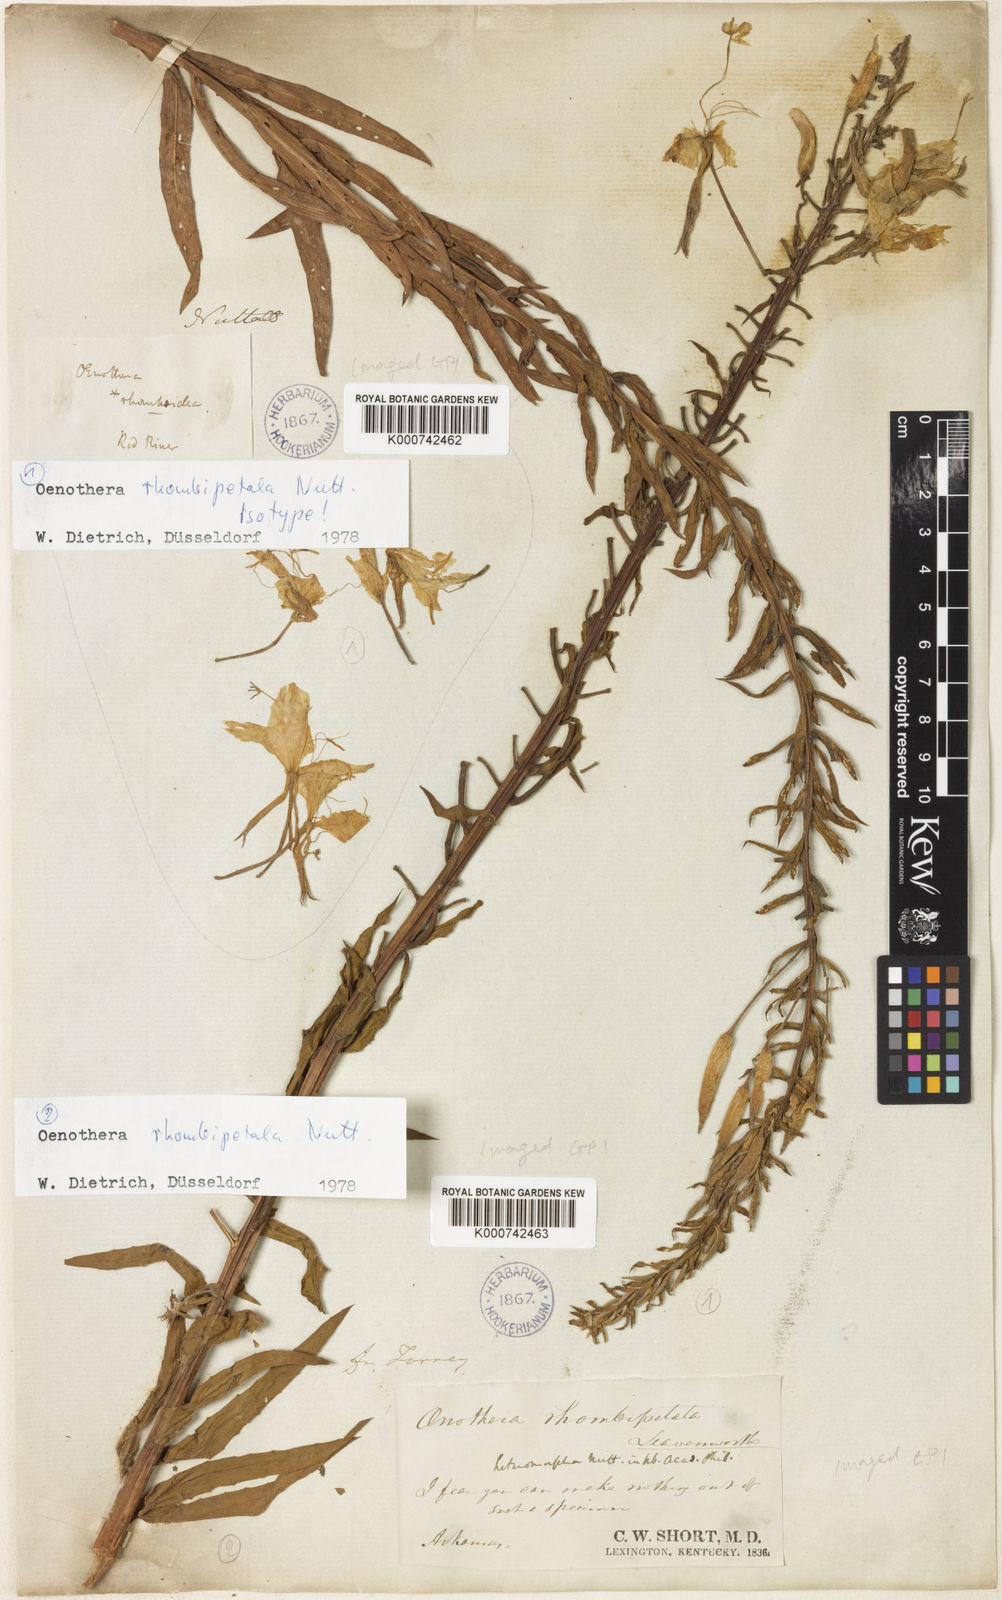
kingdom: Plantae
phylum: Tracheophyta
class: Magnoliopsida
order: Myrtales
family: Onagraceae
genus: Oenothera
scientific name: Oenothera
